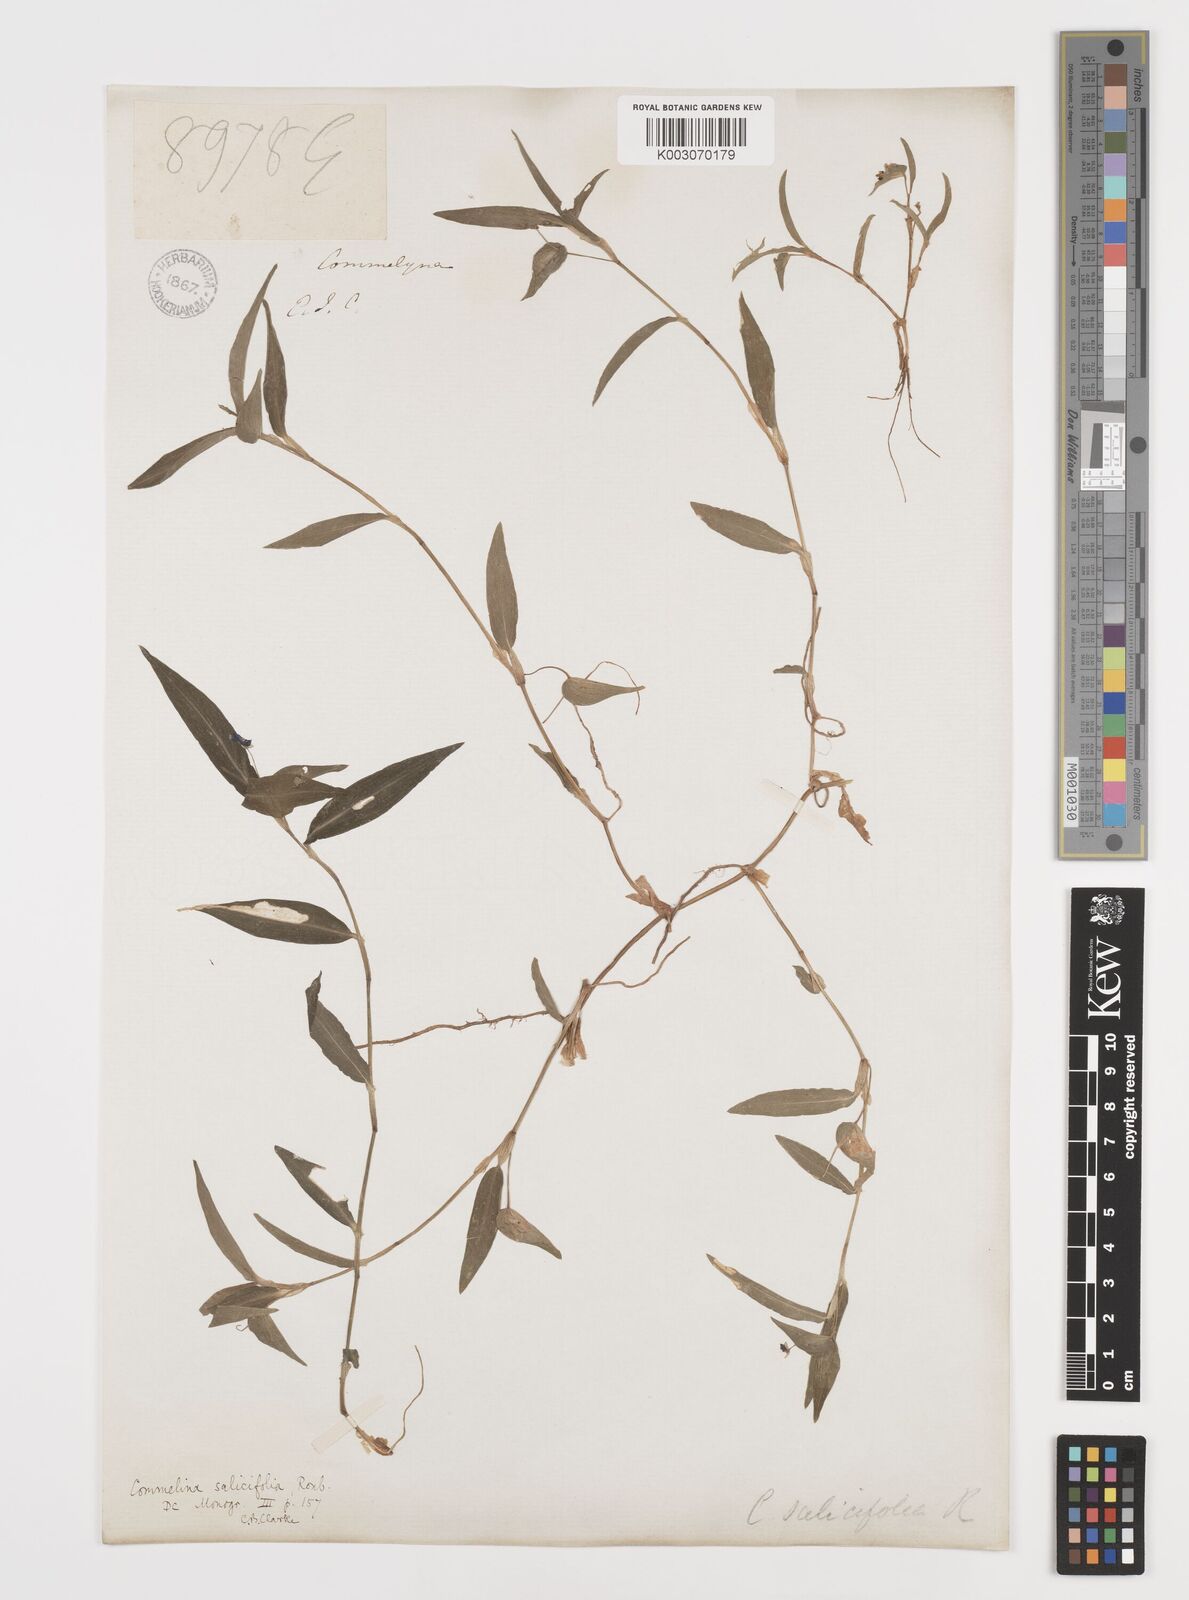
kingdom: Plantae
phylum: Tracheophyta
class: Liliopsida
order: Commelinales
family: Commelinaceae
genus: Commelina
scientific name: Commelina attenuata
